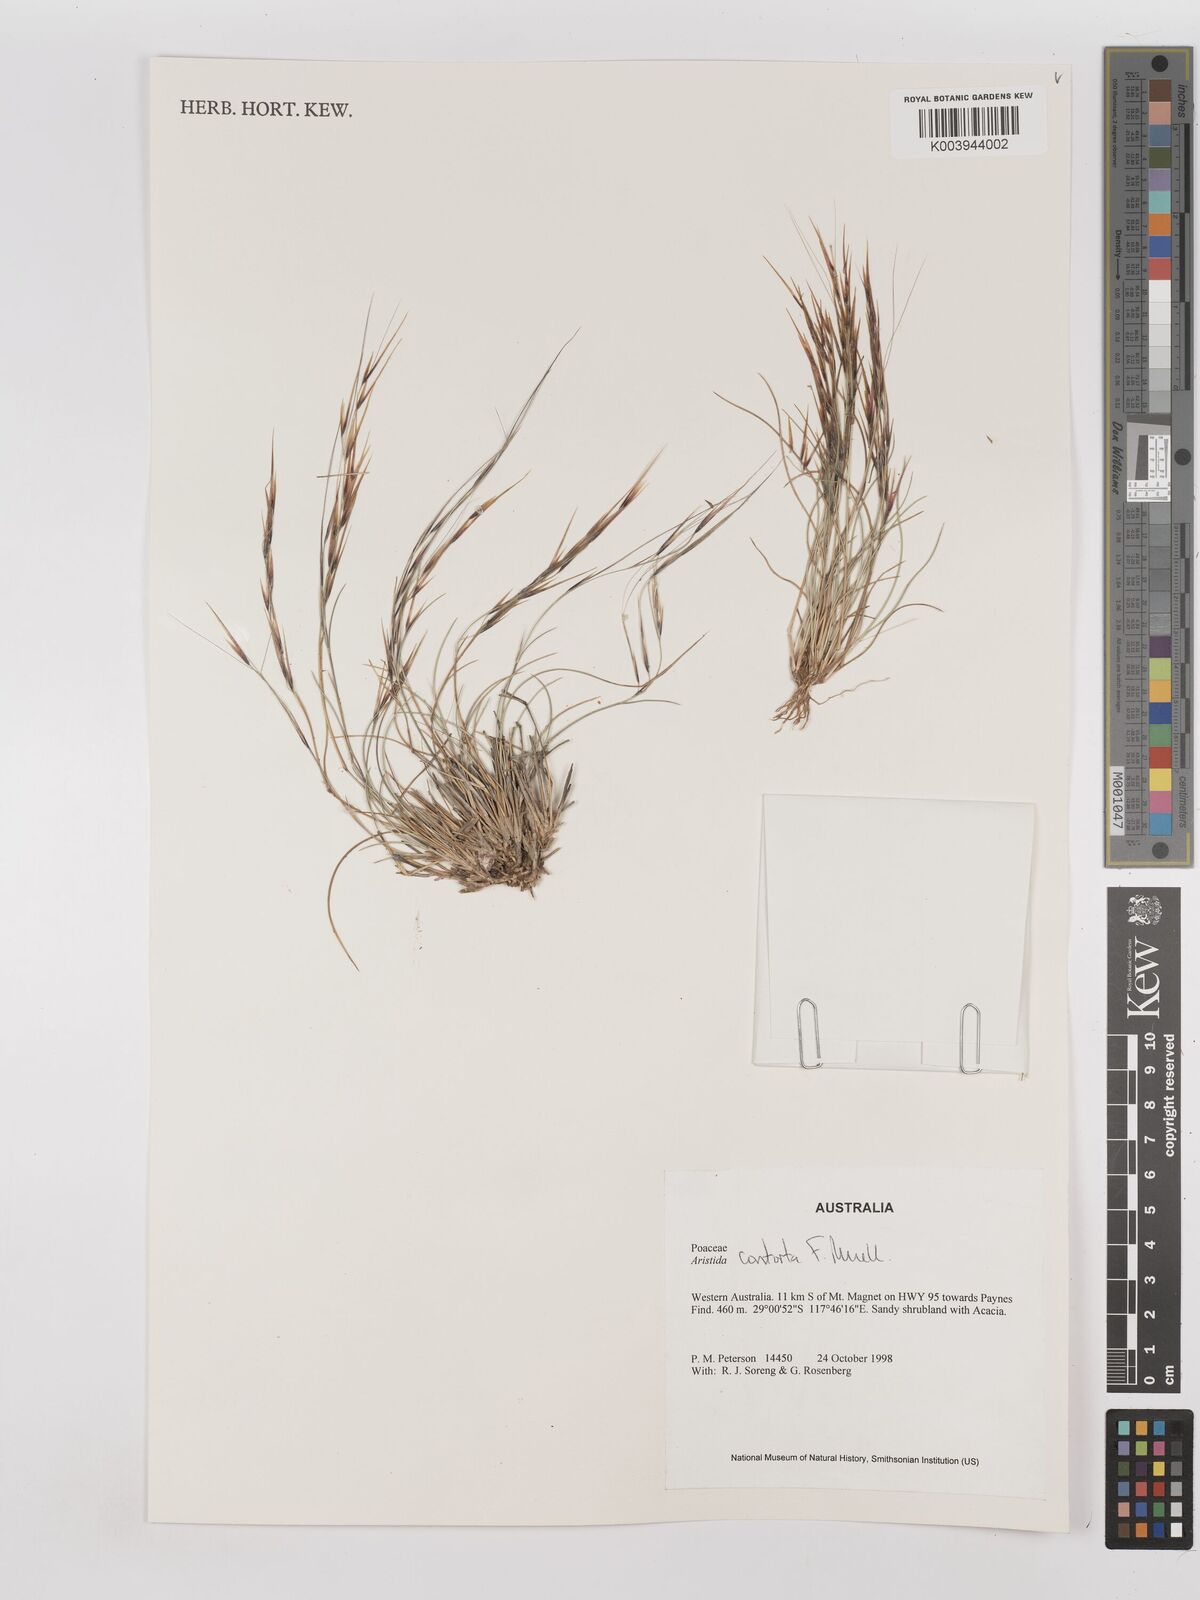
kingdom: Plantae
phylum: Tracheophyta
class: Liliopsida
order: Poales
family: Poaceae
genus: Aristida
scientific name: Aristida contorta
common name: Bunch kerosene grass
